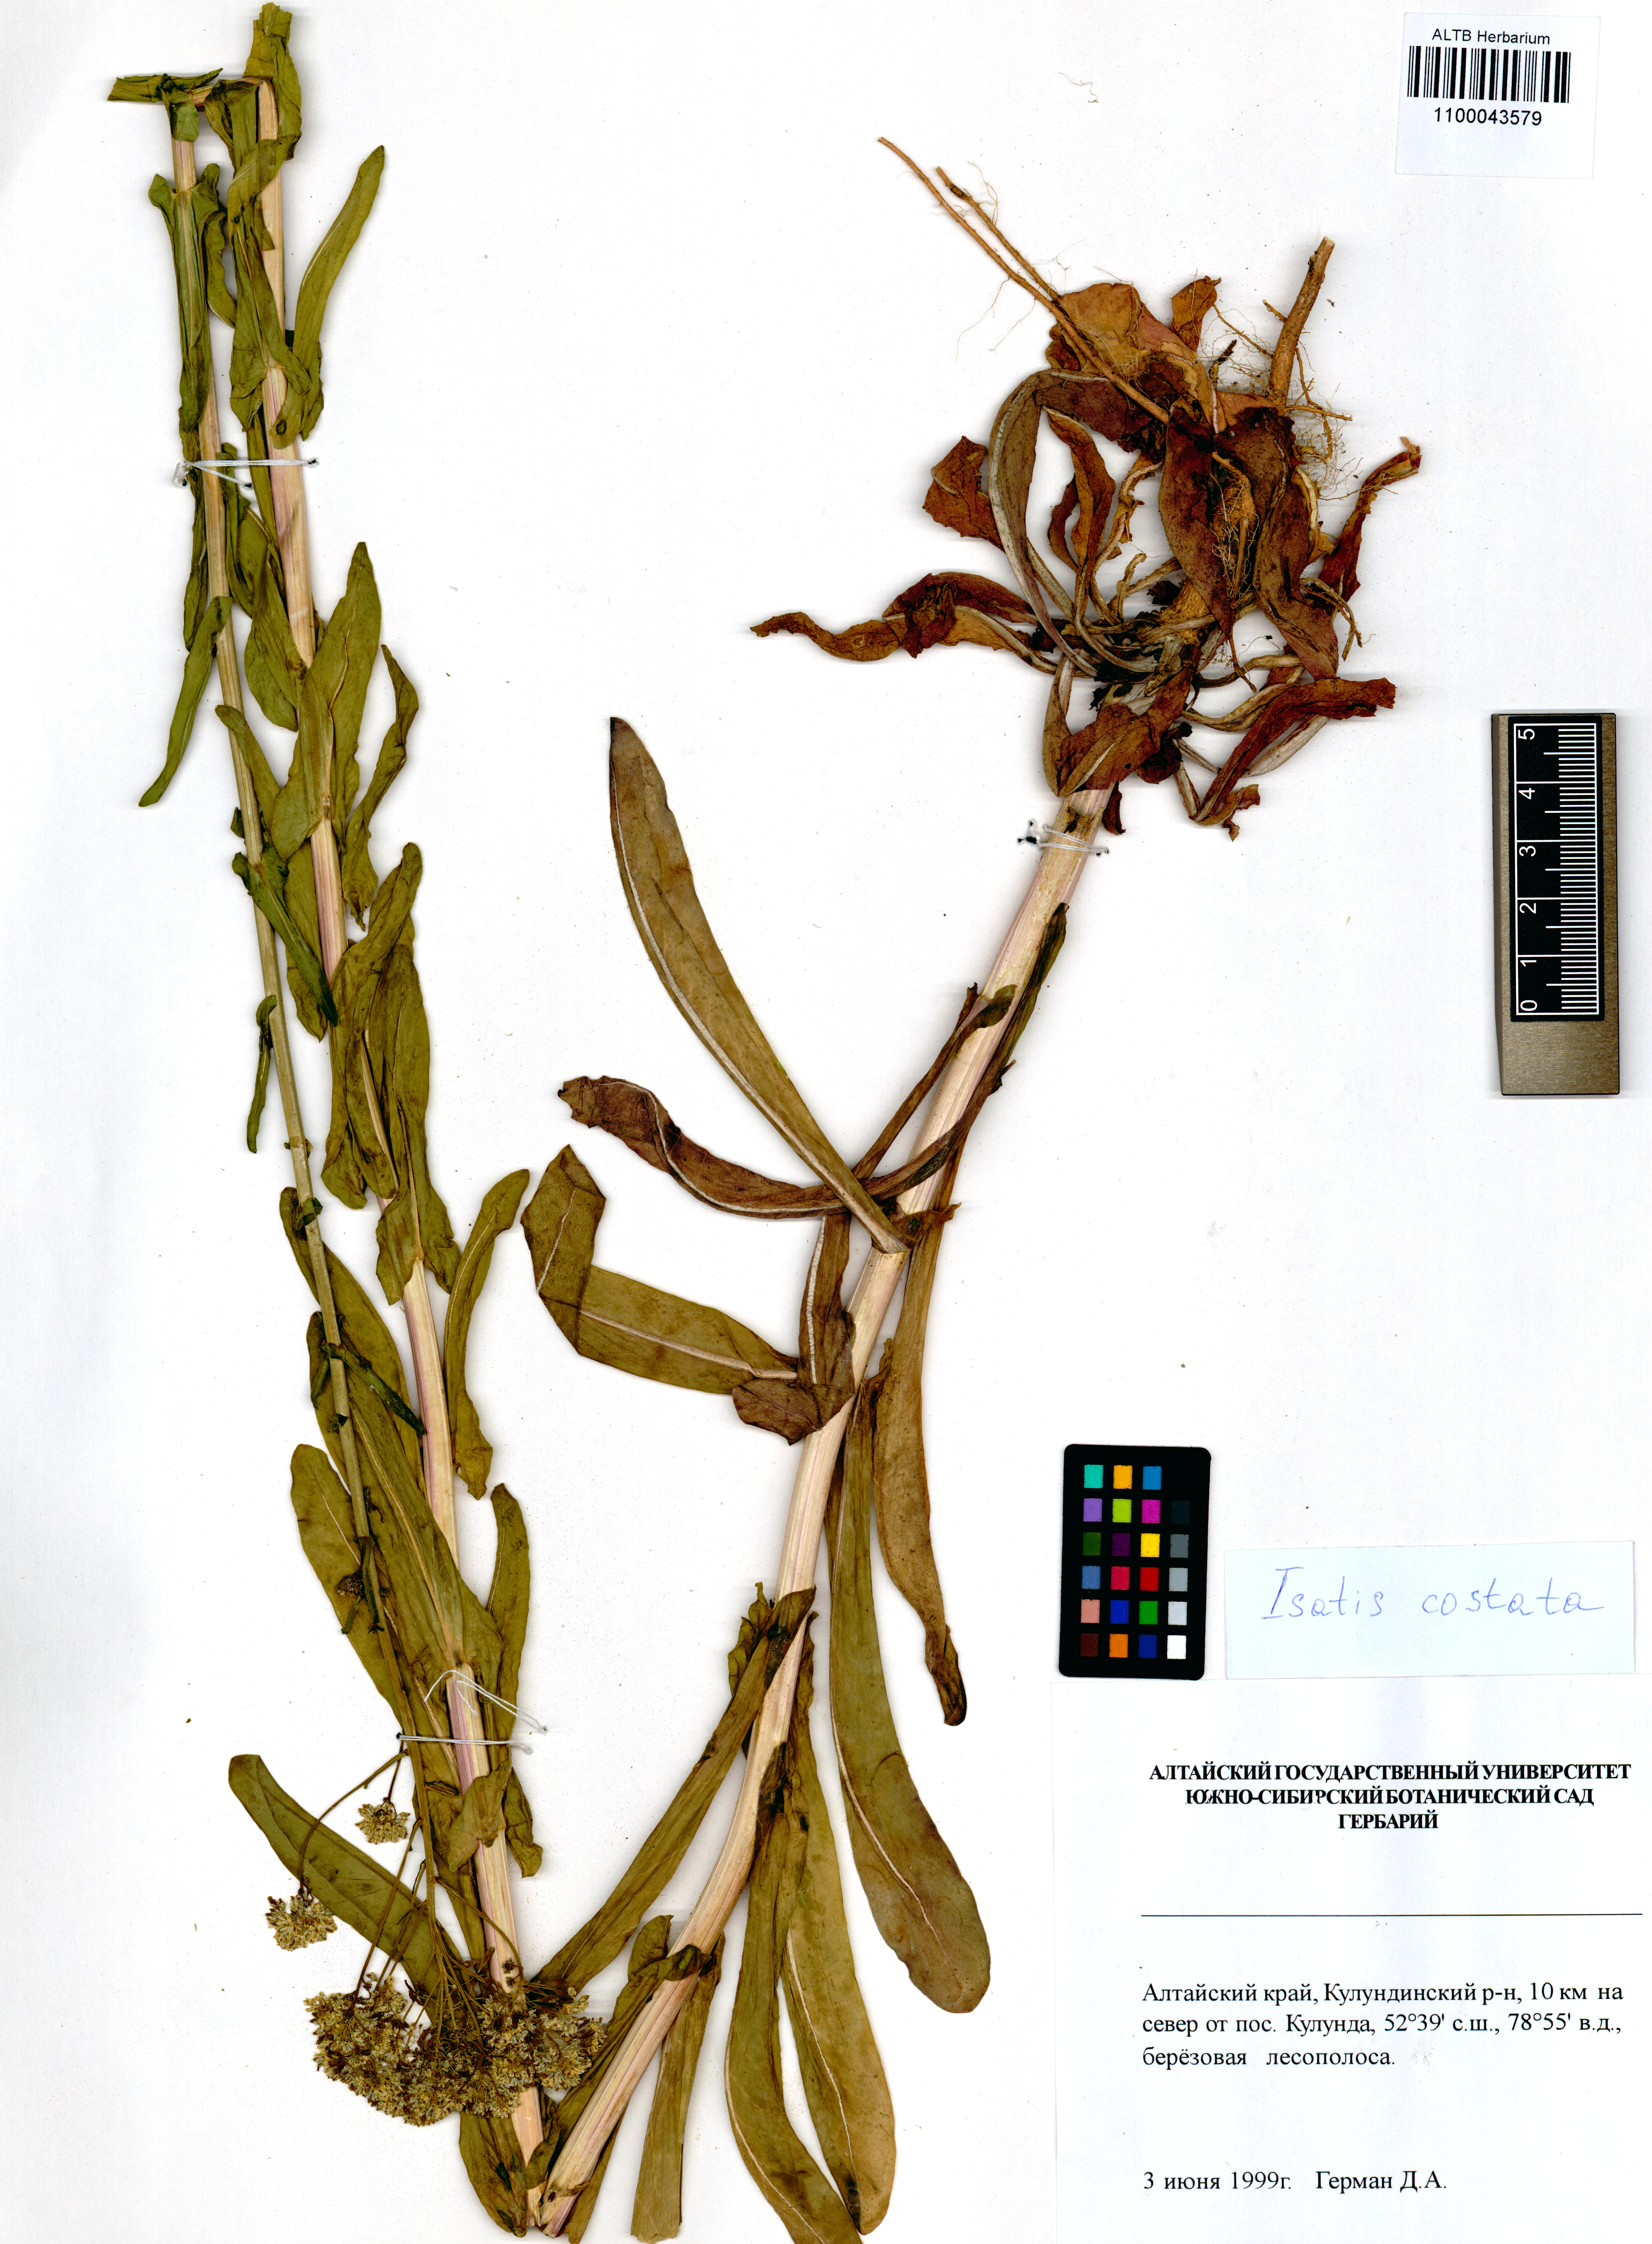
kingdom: Plantae
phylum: Tracheophyta
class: Magnoliopsida
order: Brassicales
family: Brassicaceae
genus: Isatis
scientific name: Isatis costata
